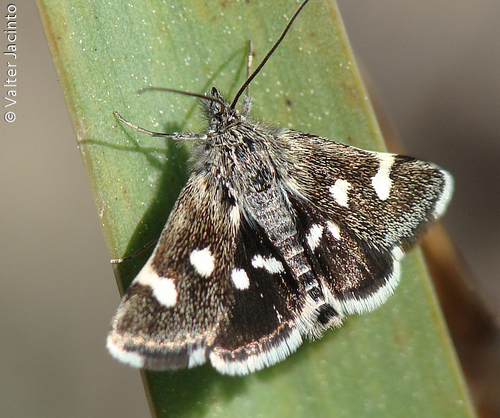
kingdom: Animalia
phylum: Arthropoda
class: Insecta
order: Lepidoptera
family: Crambidae
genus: Eurrhypis
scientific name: Eurrhypis guttulalis
